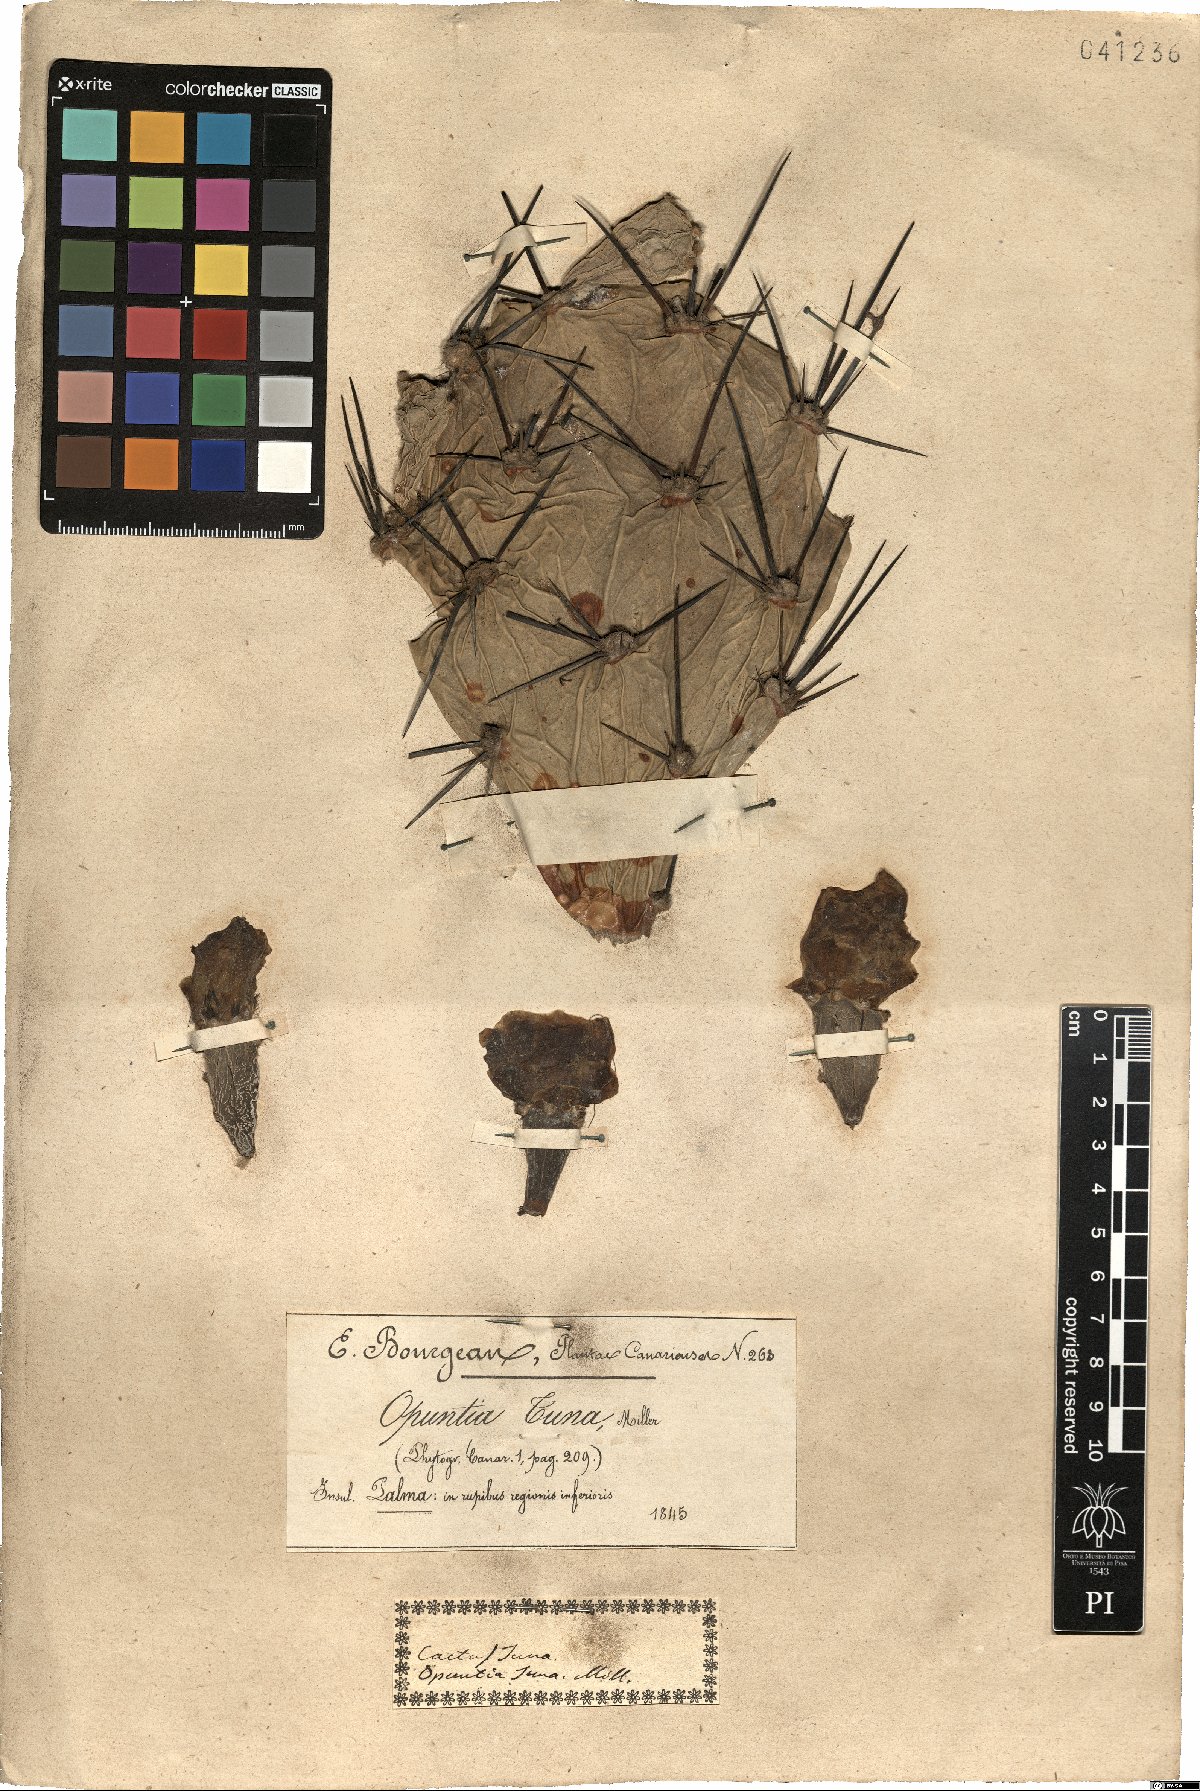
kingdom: Plantae
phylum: Tracheophyta
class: Magnoliopsida
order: Caryophyllales
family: Cactaceae
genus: Opuntia
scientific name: Opuntia tuna
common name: Tuna
